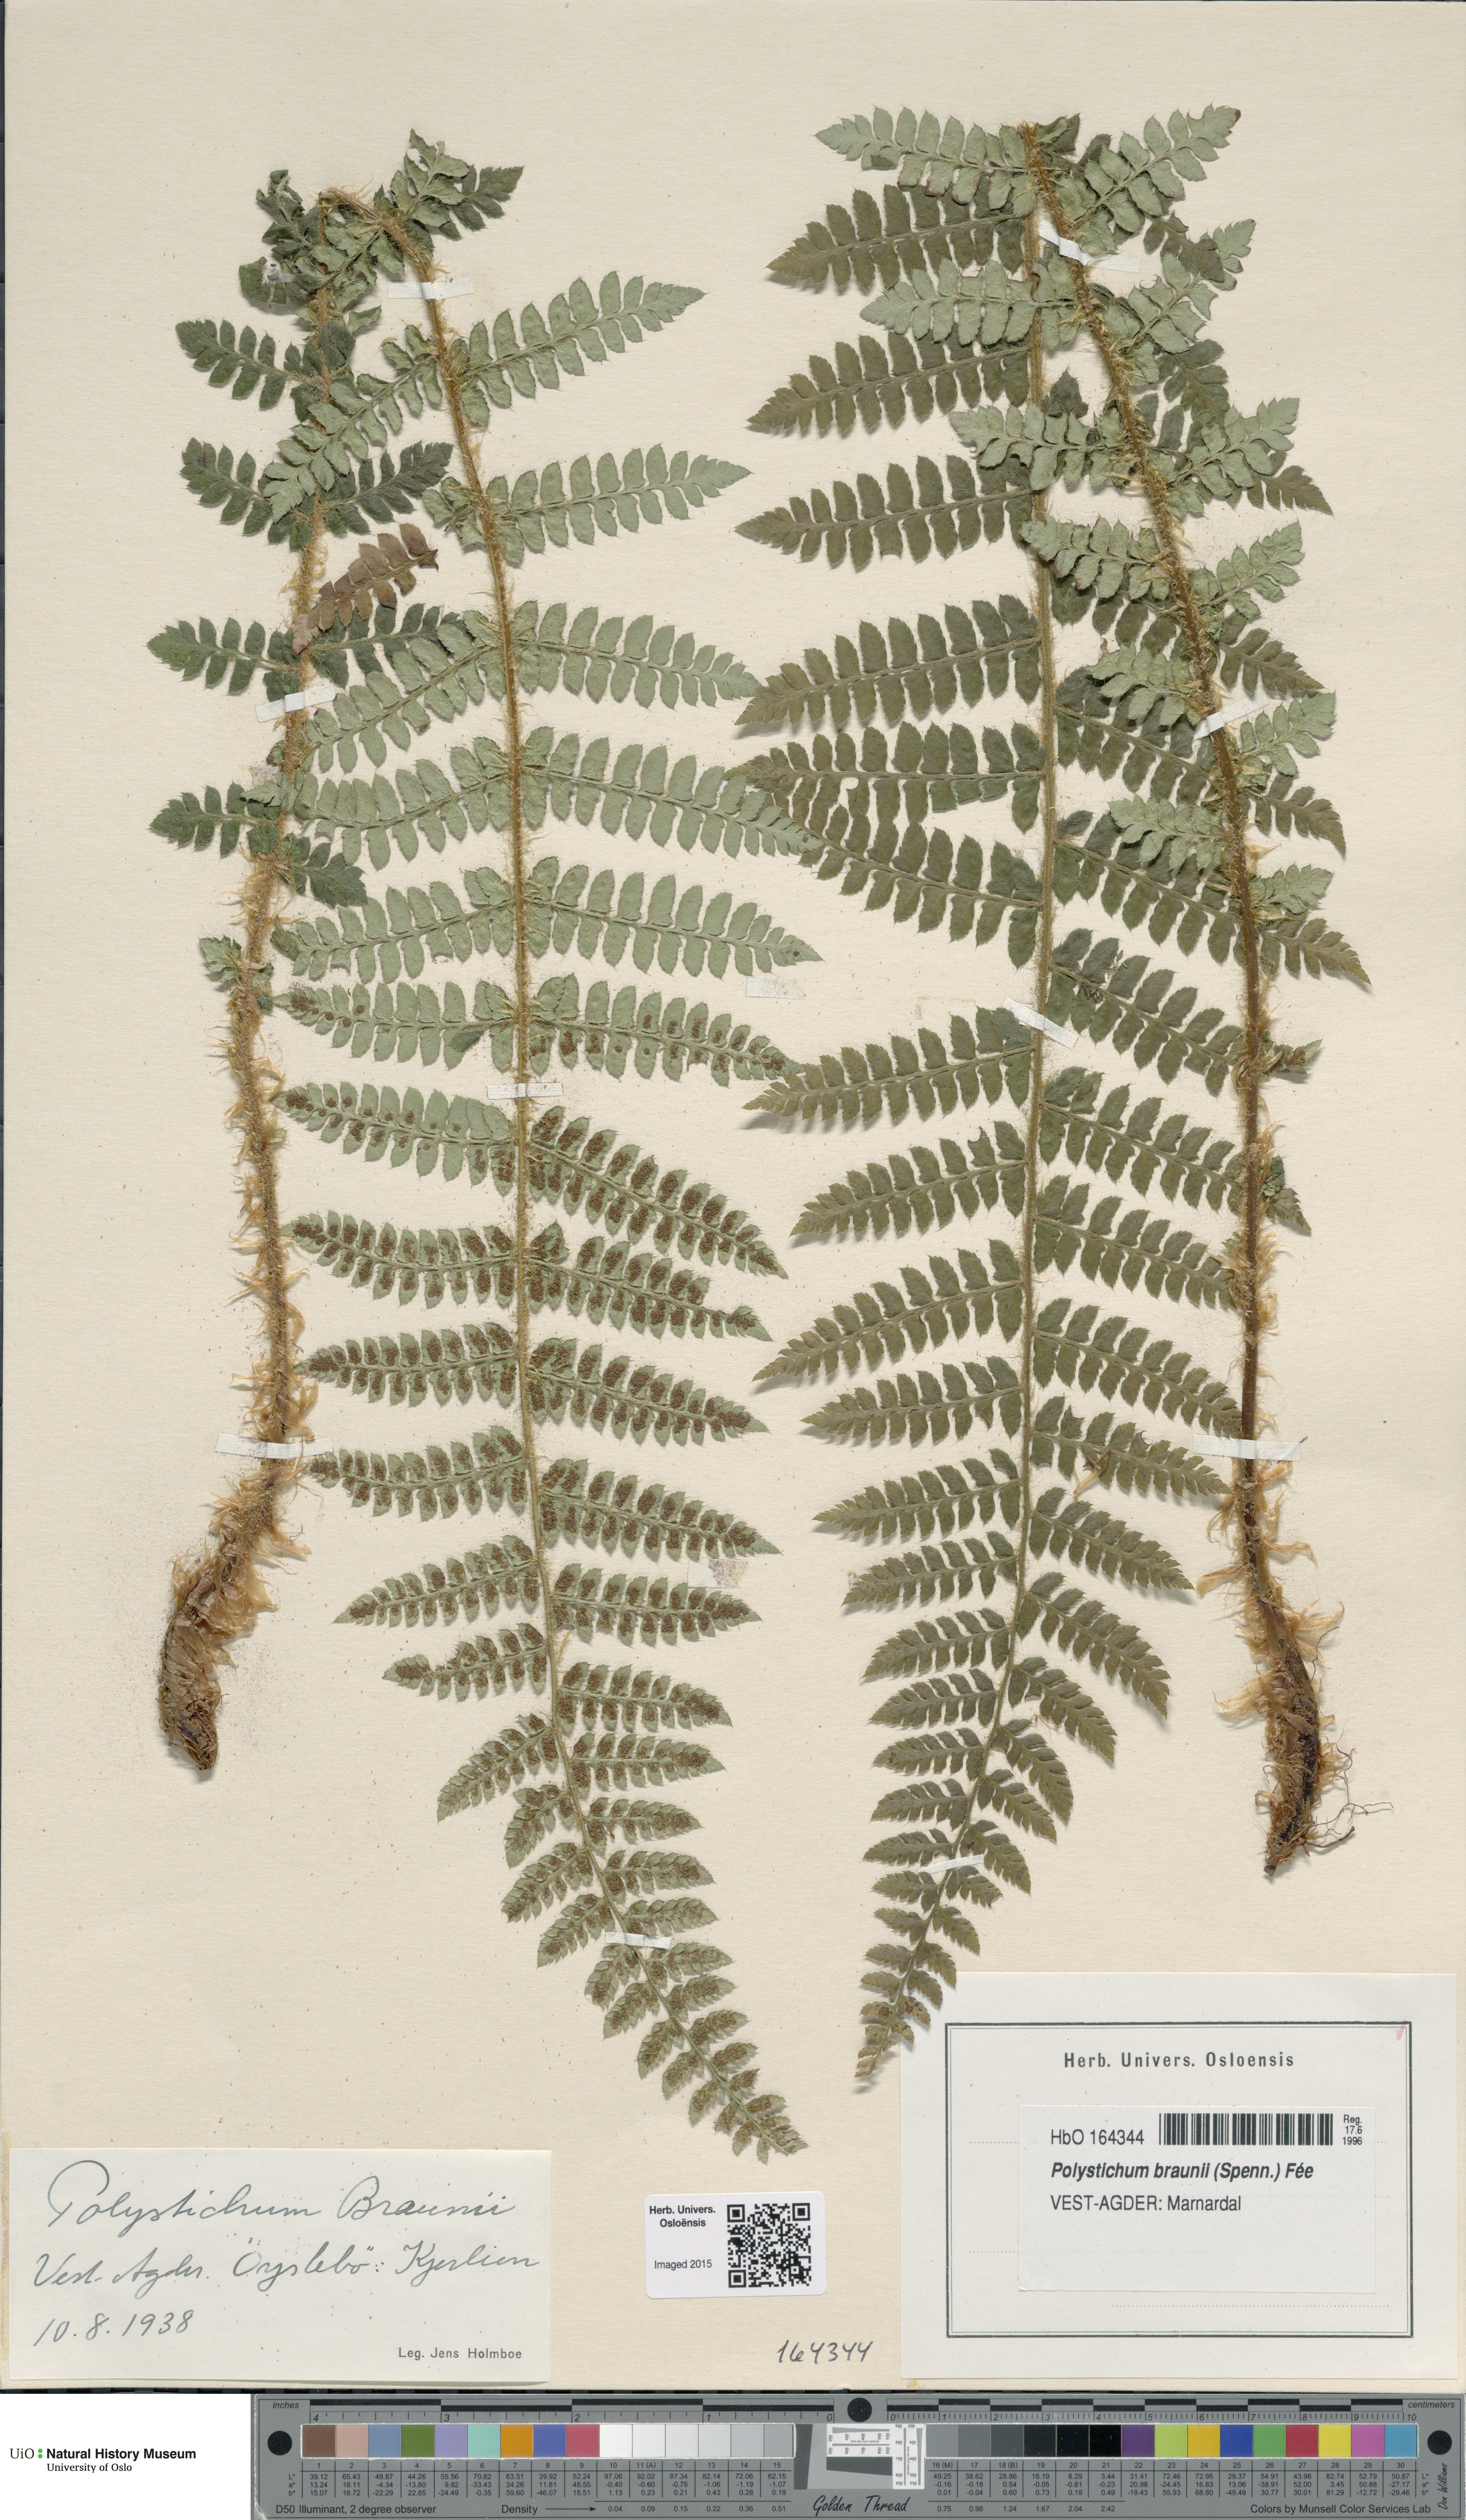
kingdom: Plantae
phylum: Tracheophyta
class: Polypodiopsida
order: Polypodiales
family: Dryopteridaceae
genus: Polystichum
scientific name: Polystichum braunii
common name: Braun's holly fern
